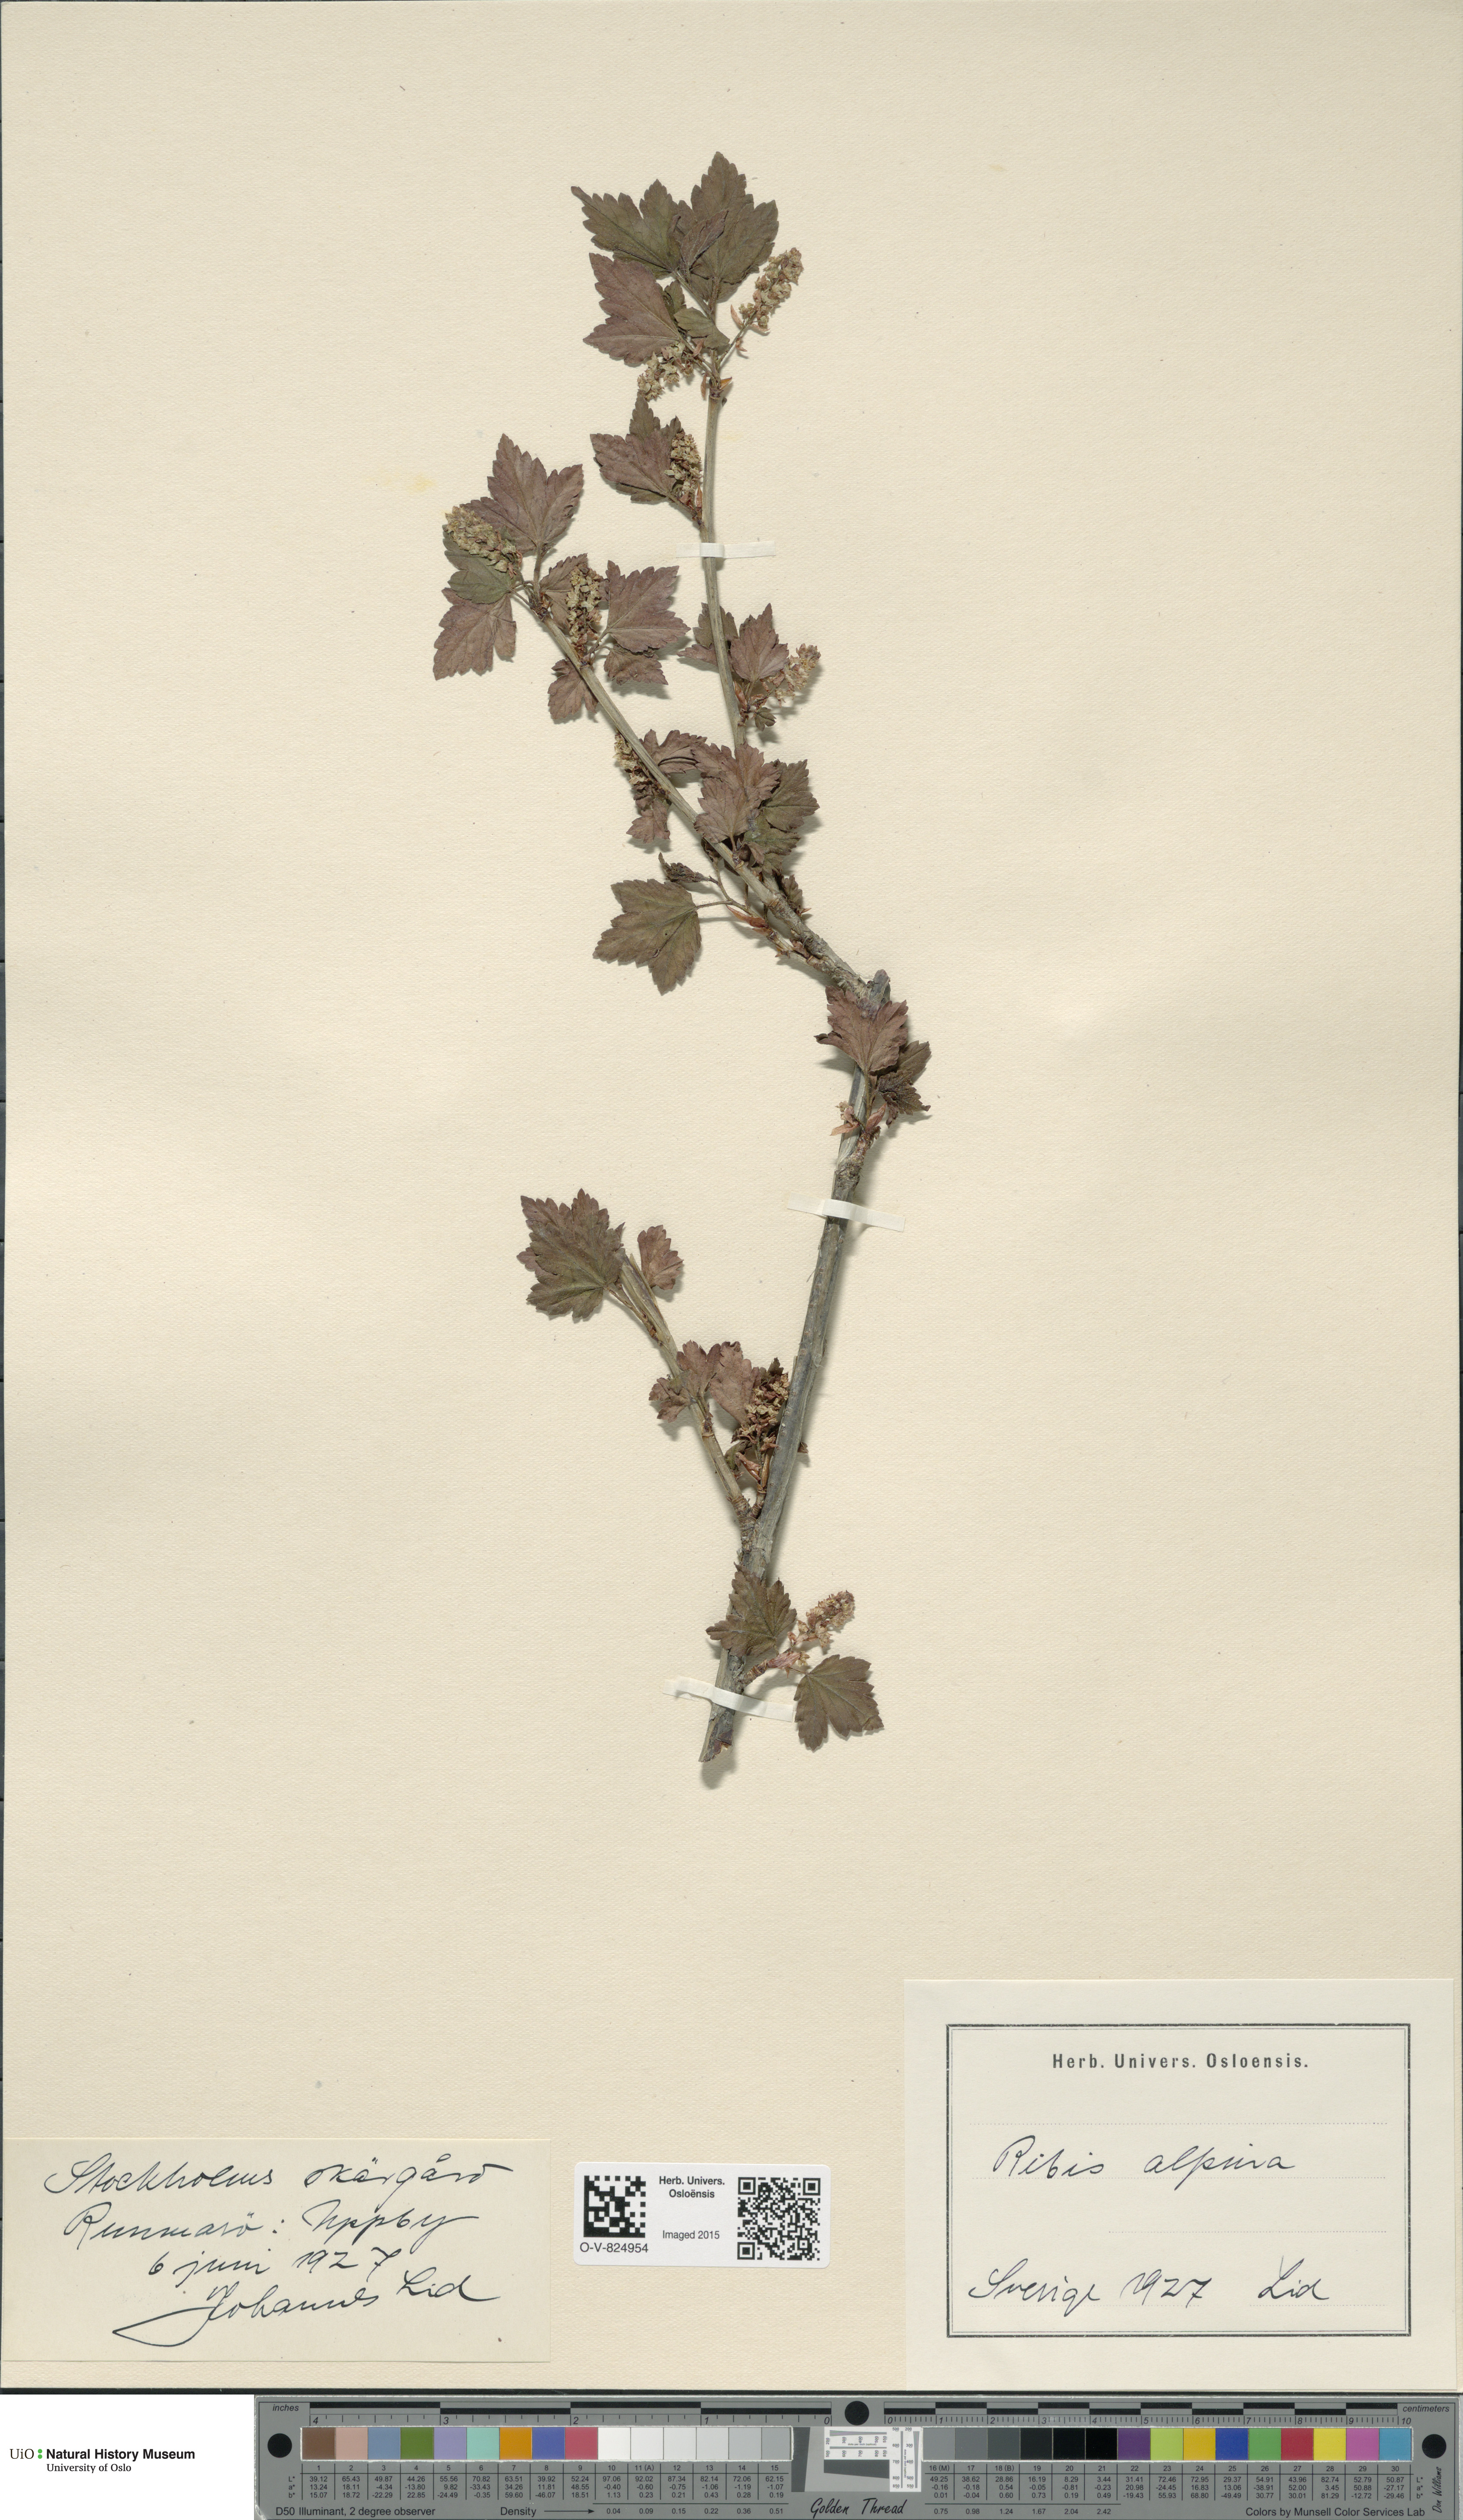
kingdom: Plantae
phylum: Tracheophyta
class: Magnoliopsida
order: Saxifragales
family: Grossulariaceae
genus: Ribes
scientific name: Ribes alpinum
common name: Alpine currant
